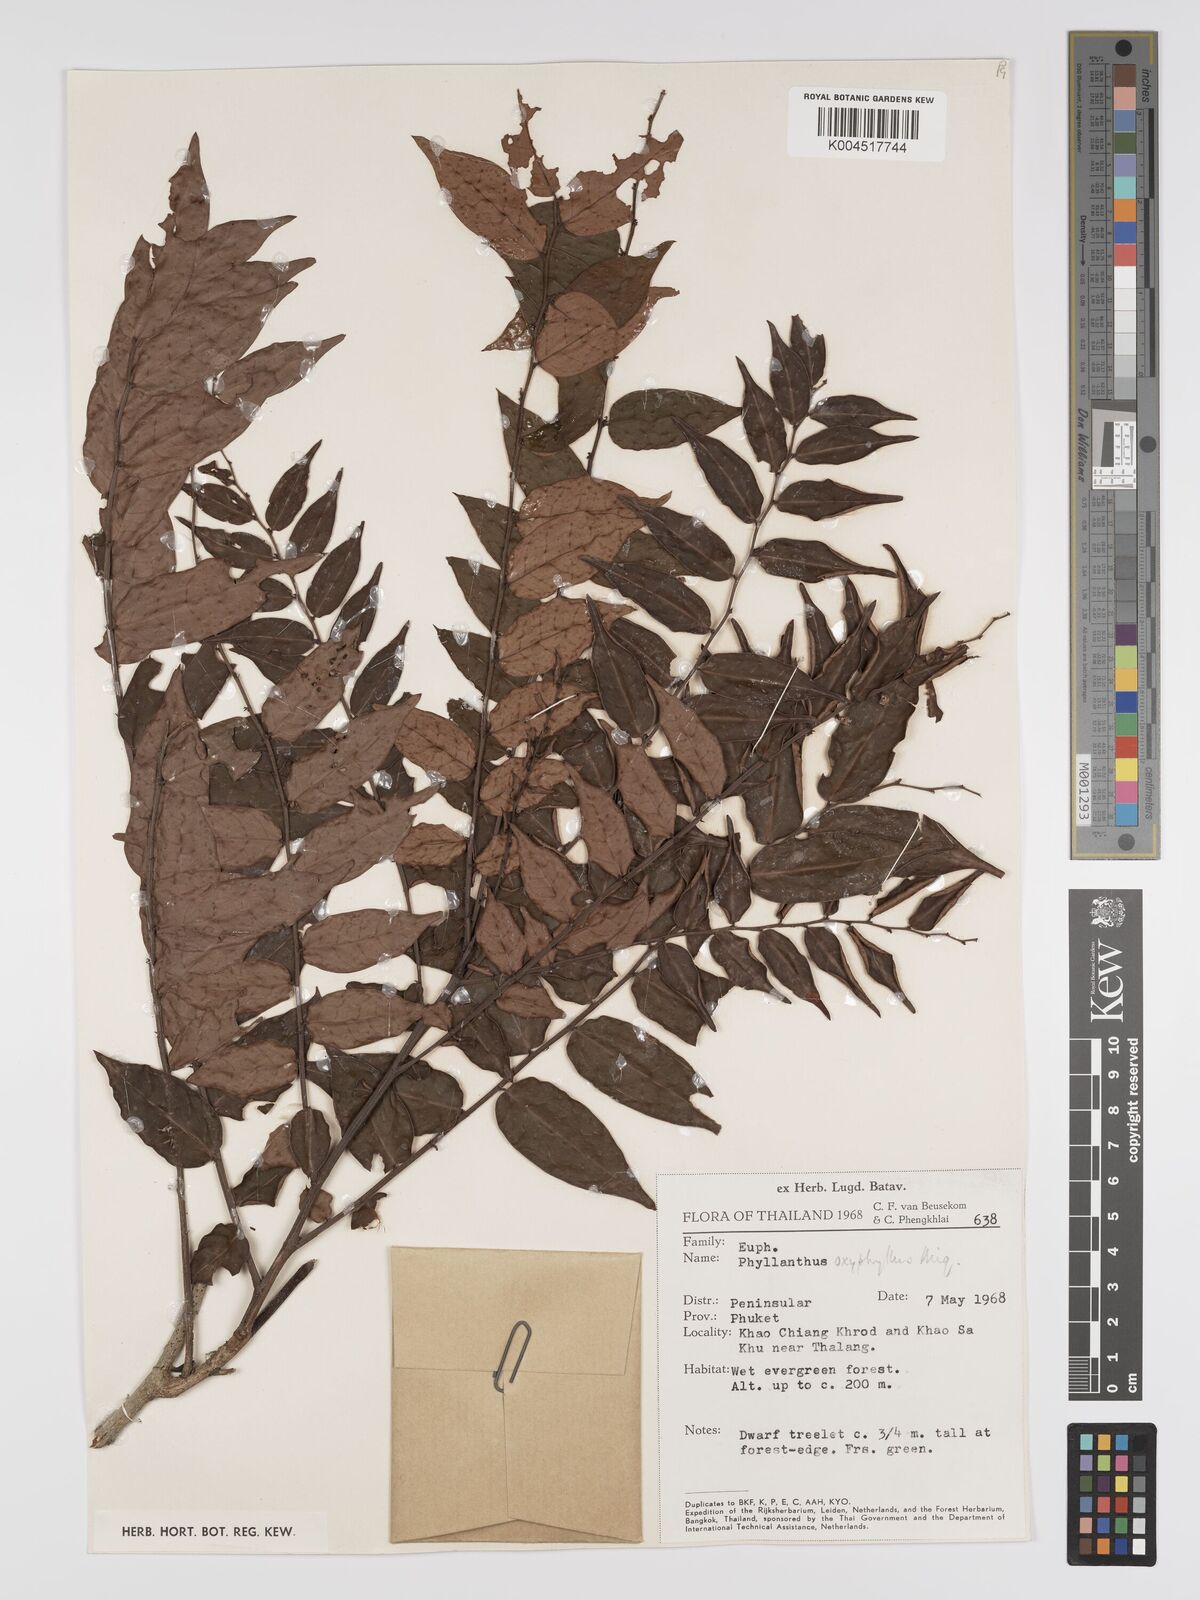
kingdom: Plantae
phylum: Tracheophyta
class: Magnoliopsida
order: Malpighiales
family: Phyllanthaceae
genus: Phyllanthus
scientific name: Phyllanthus
